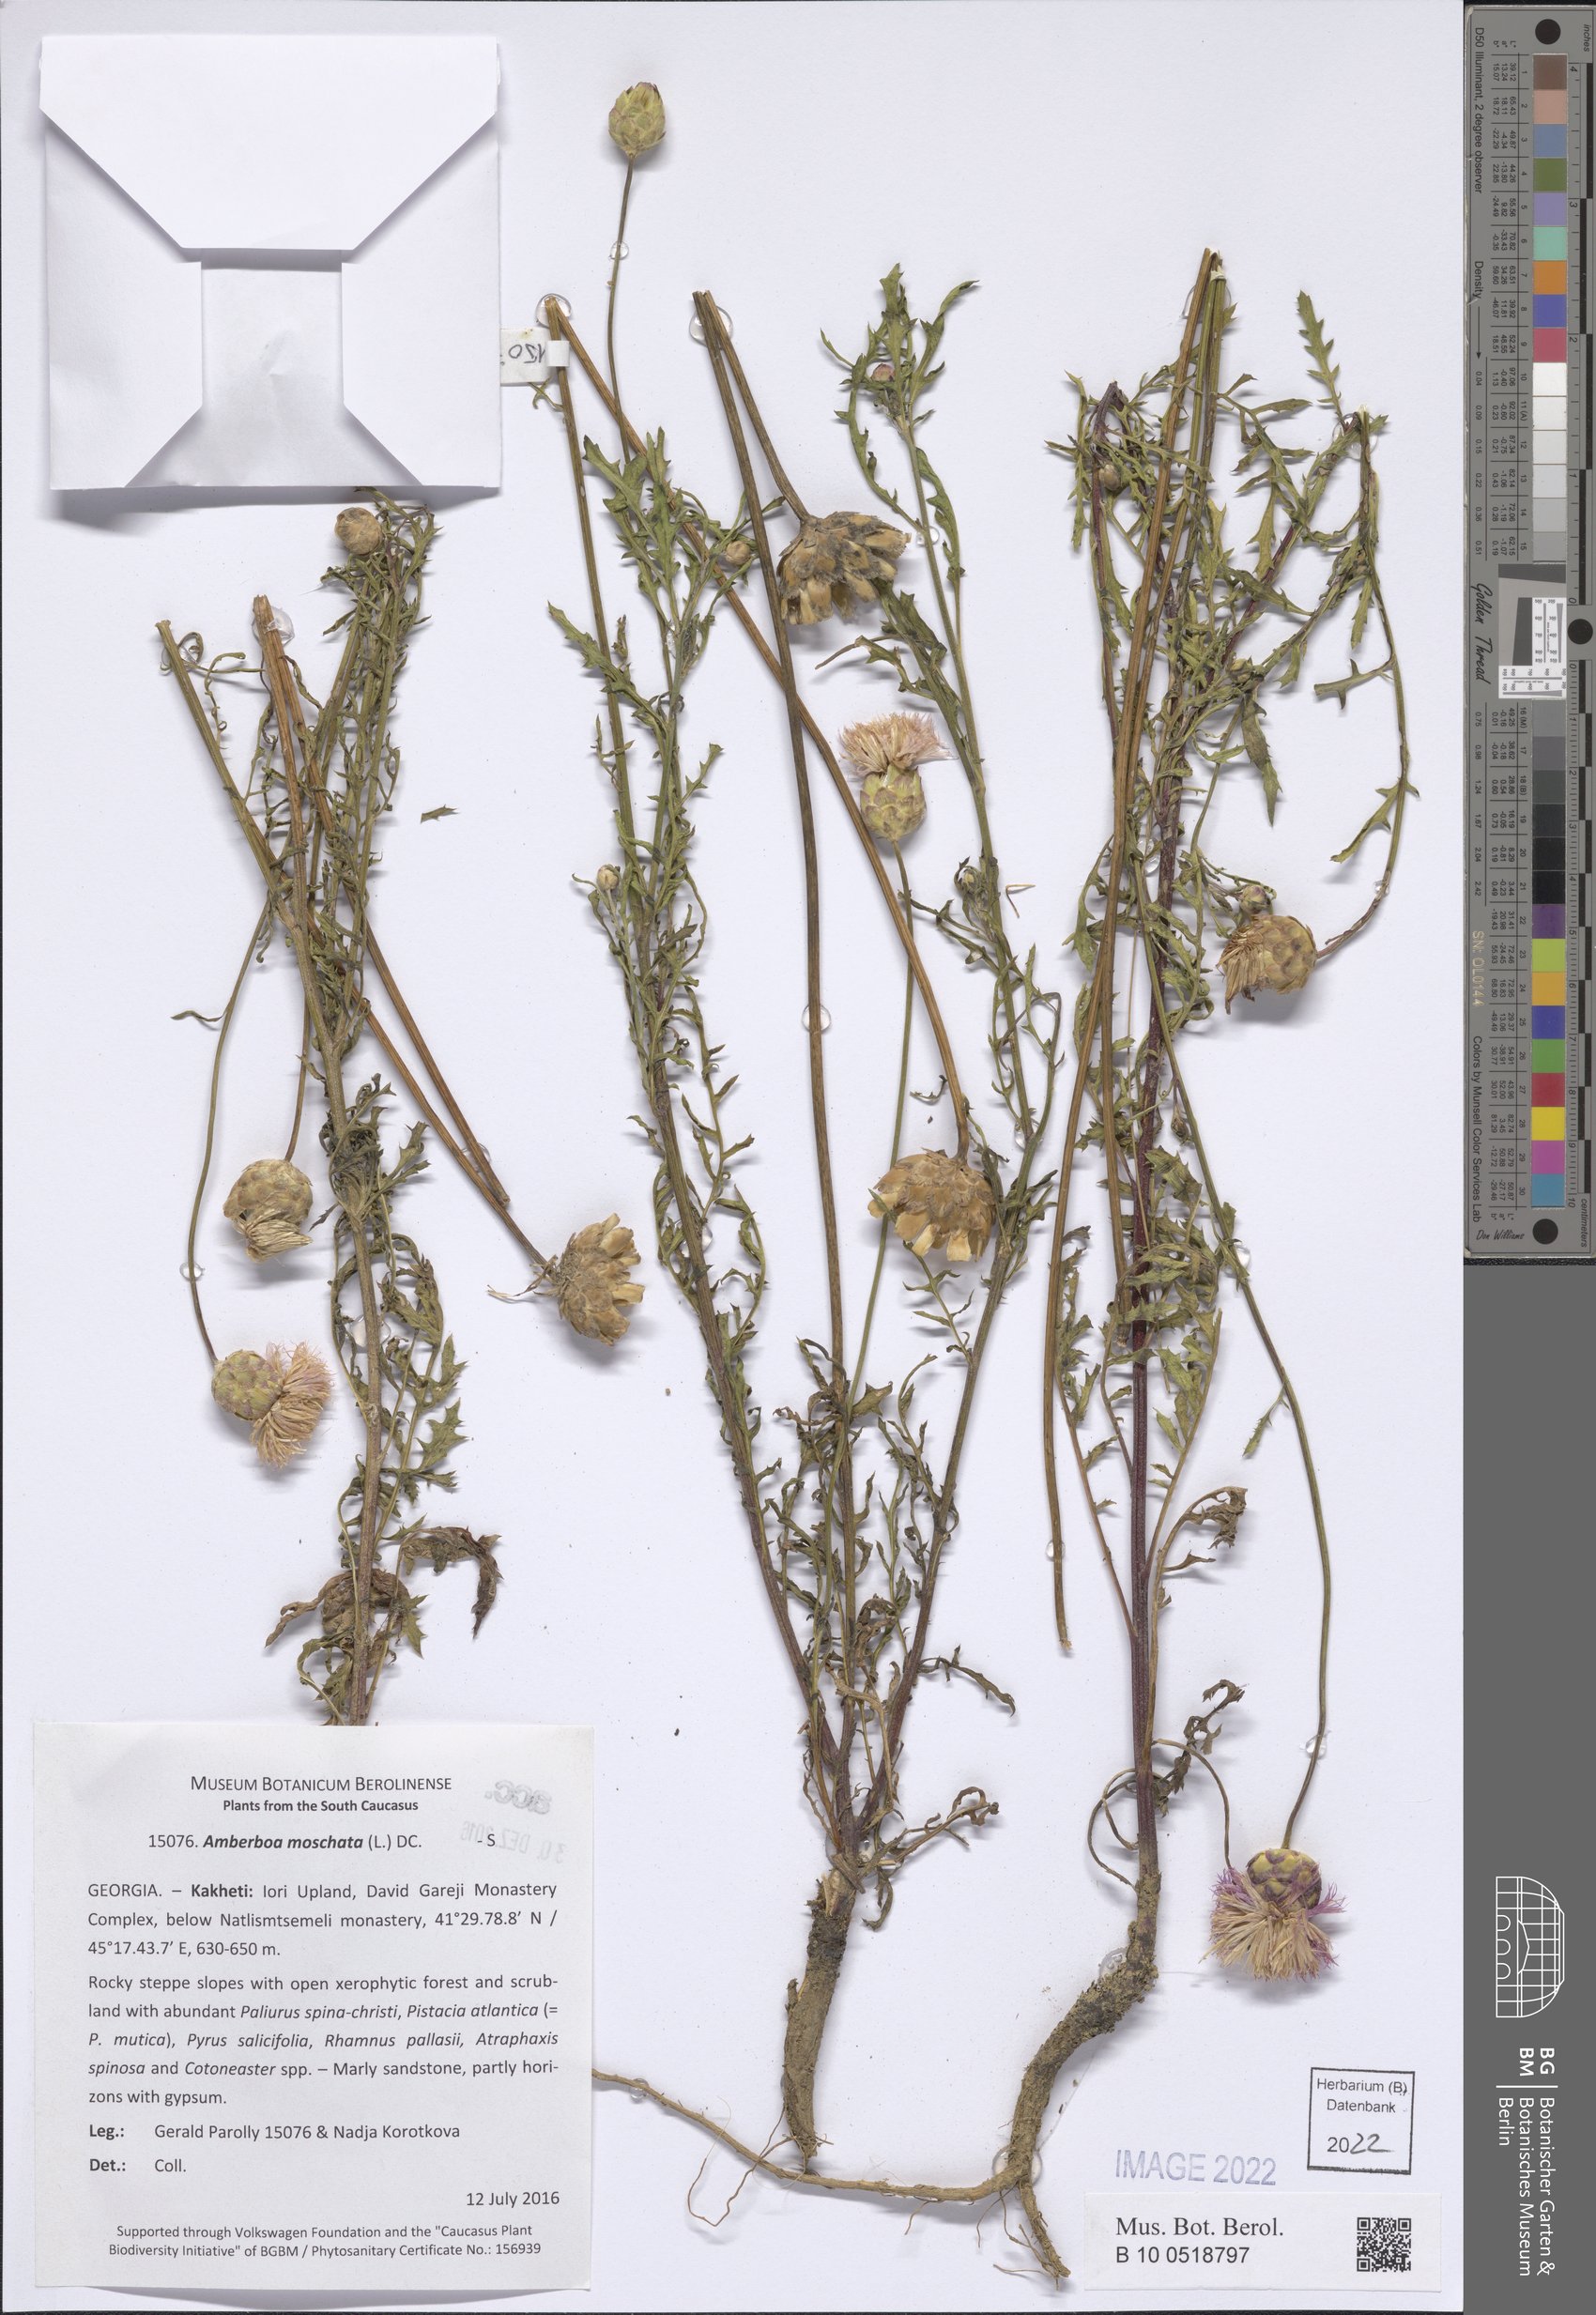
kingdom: Plantae
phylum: Tracheophyta
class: Magnoliopsida
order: Asterales
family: Asteraceae
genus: Amberboa
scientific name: Amberboa moschata
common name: Sweet-sultan
